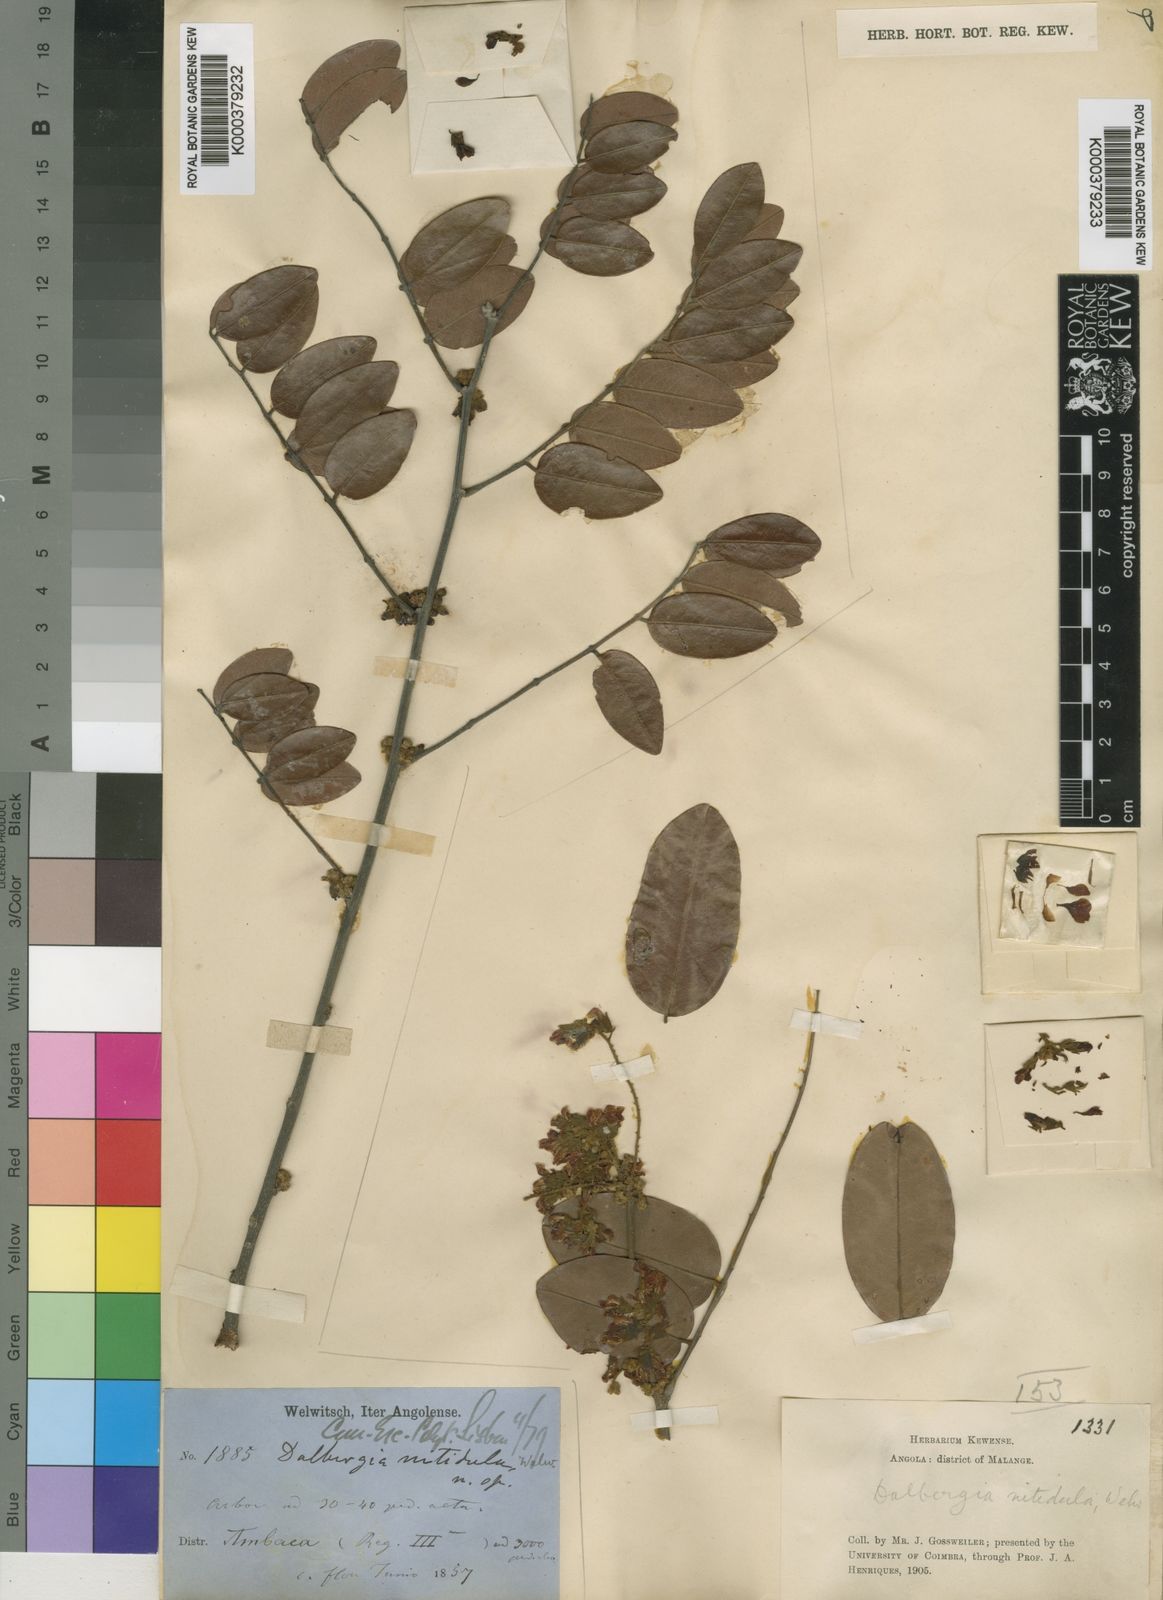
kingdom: Plantae
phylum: Tracheophyta
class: Magnoliopsida
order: Fabales
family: Fabaceae
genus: Dalbergia
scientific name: Dalbergia
